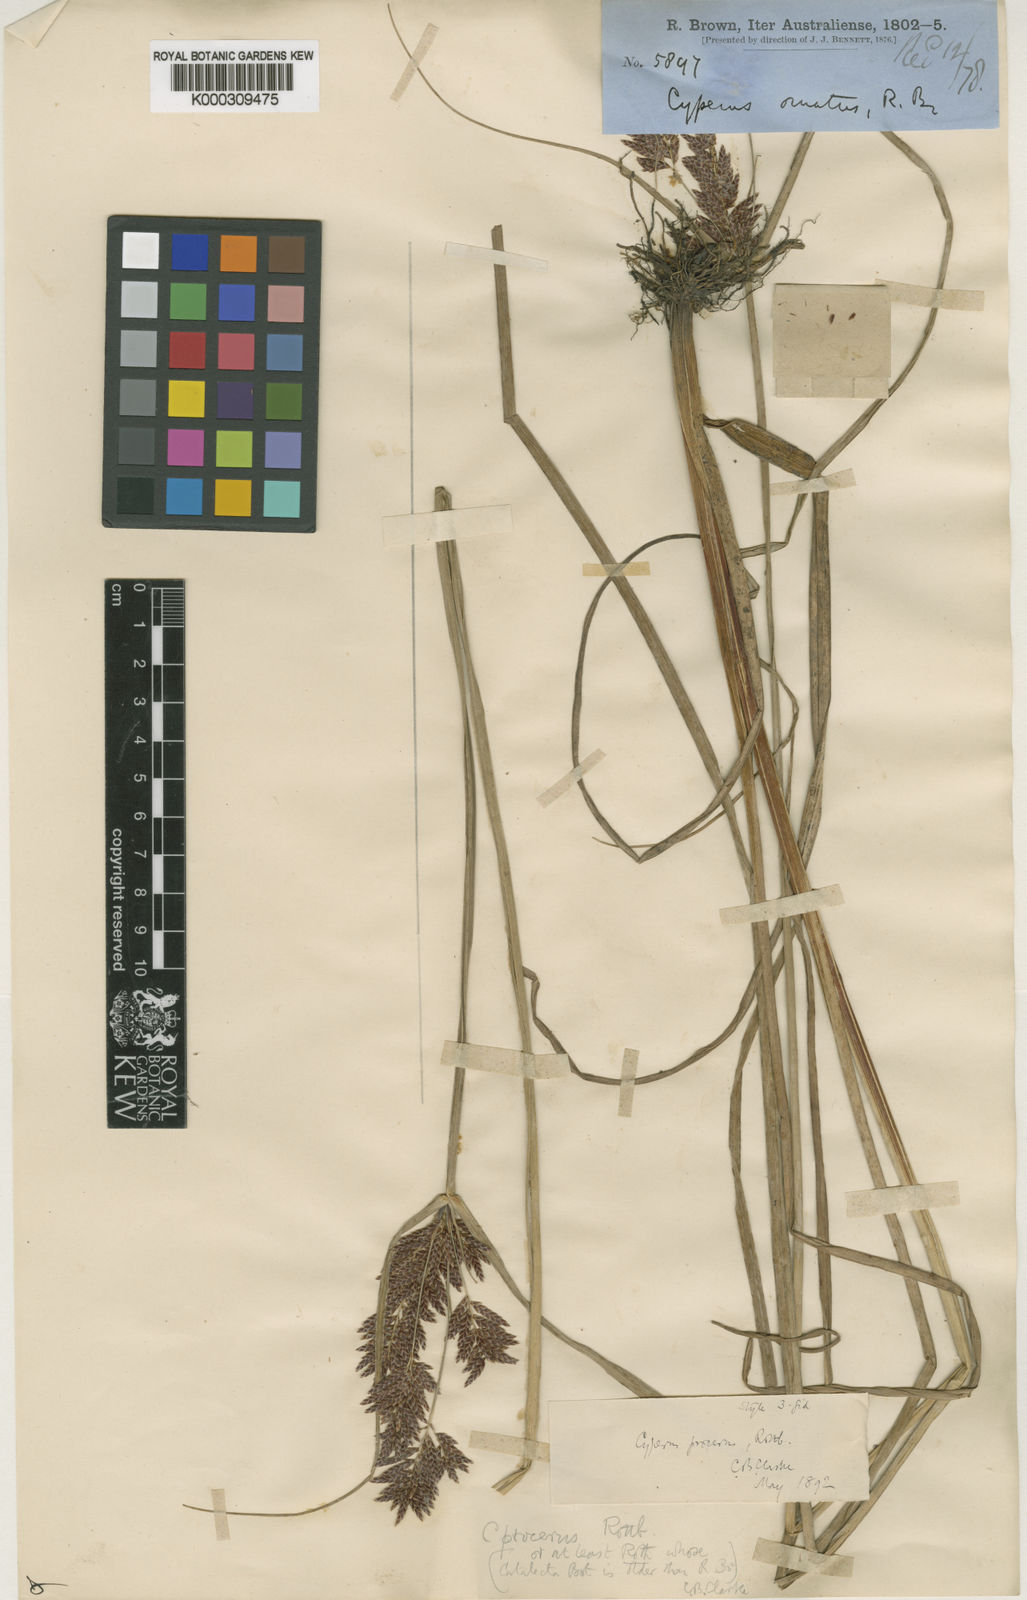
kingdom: Plantae
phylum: Tracheophyta
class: Liliopsida
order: Poales
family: Cyperaceae
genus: Cyperus
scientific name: Cyperus procerus
